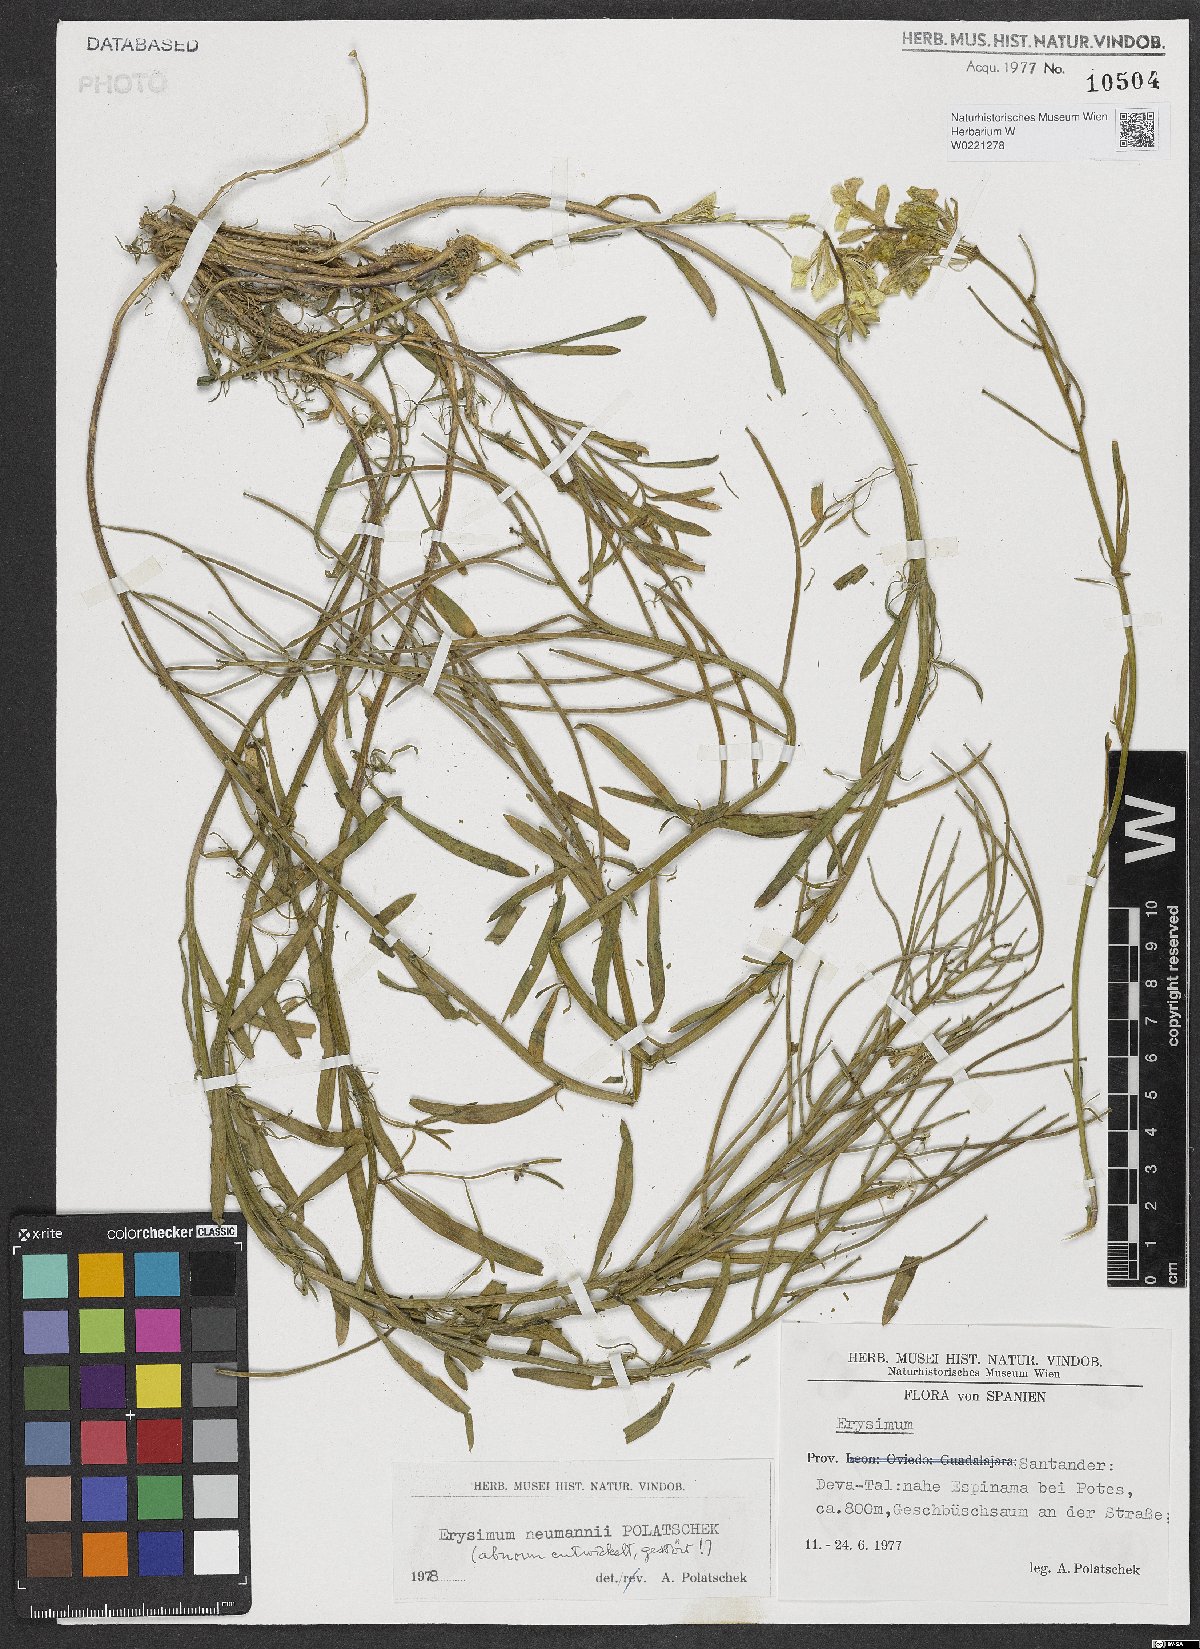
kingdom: Plantae
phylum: Tracheophyta
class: Magnoliopsida
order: Brassicales
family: Brassicaceae
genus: Erysimum
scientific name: Erysimum duriaei
